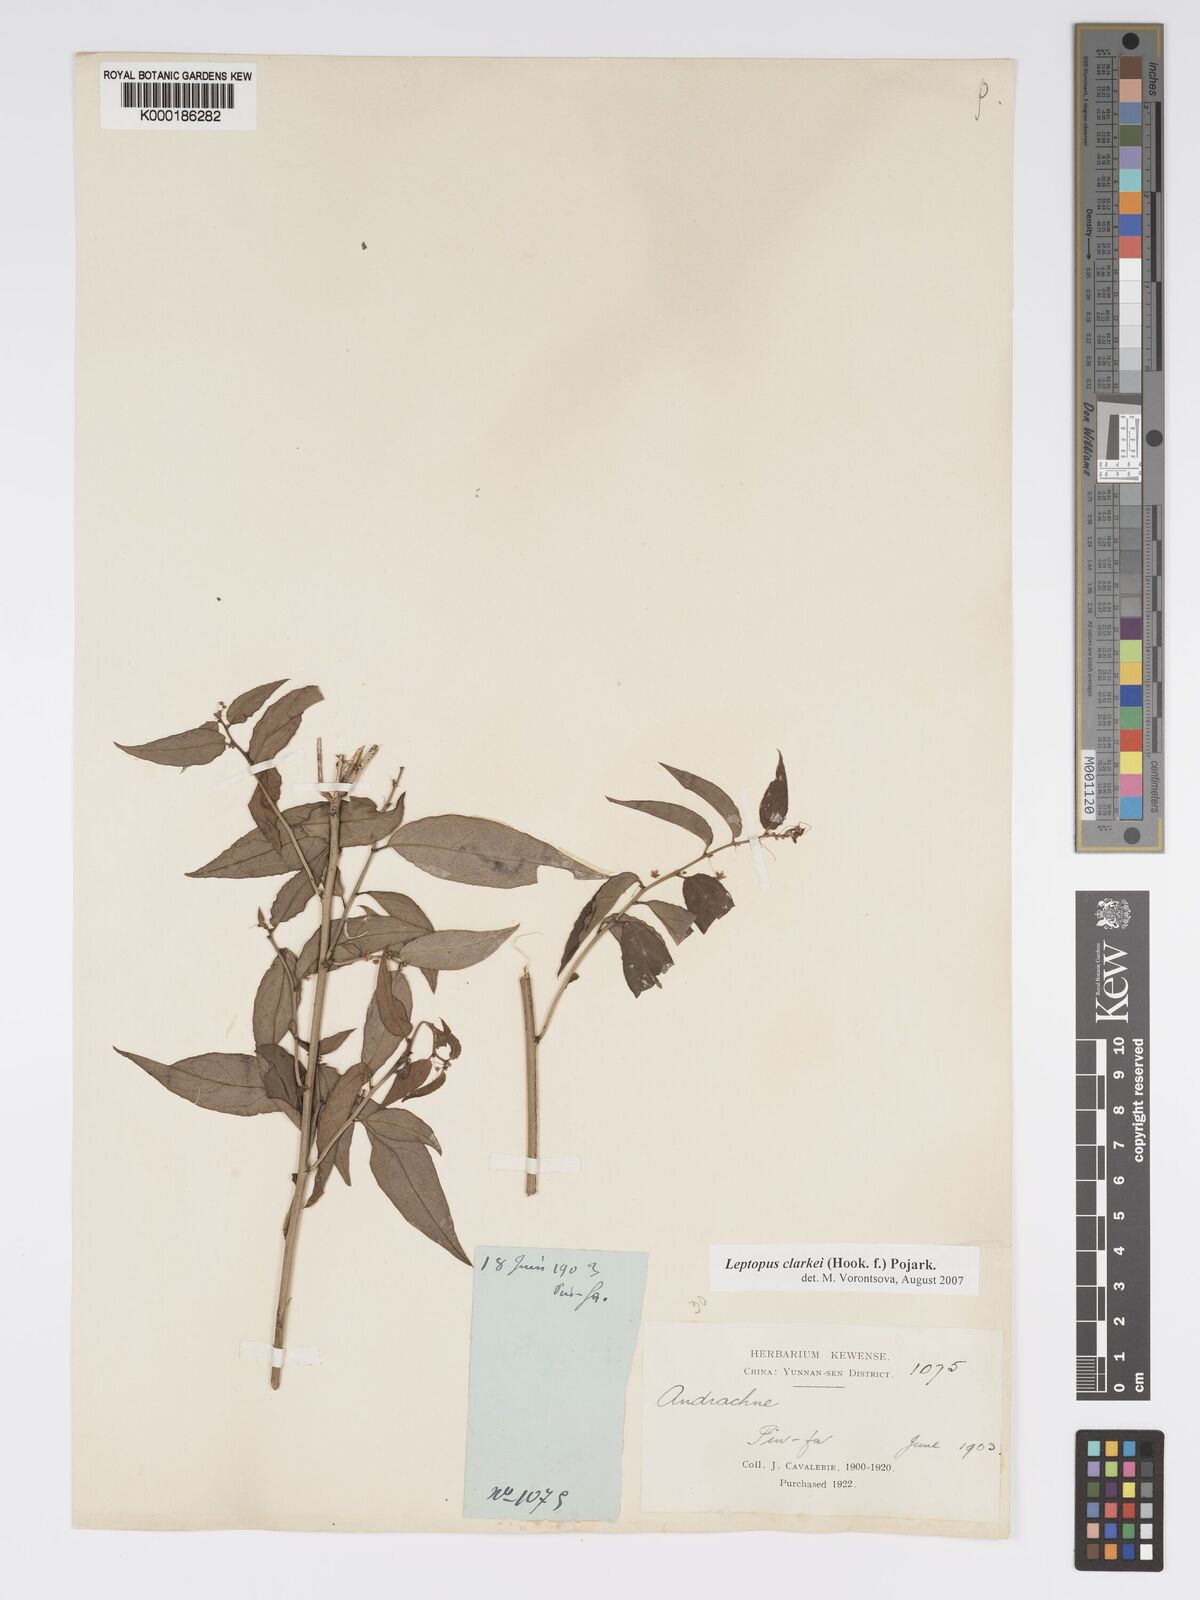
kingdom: Plantae
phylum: Tracheophyta
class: Magnoliopsida
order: Malpighiales
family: Phyllanthaceae
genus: Leptopus
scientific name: Leptopus clarkei
